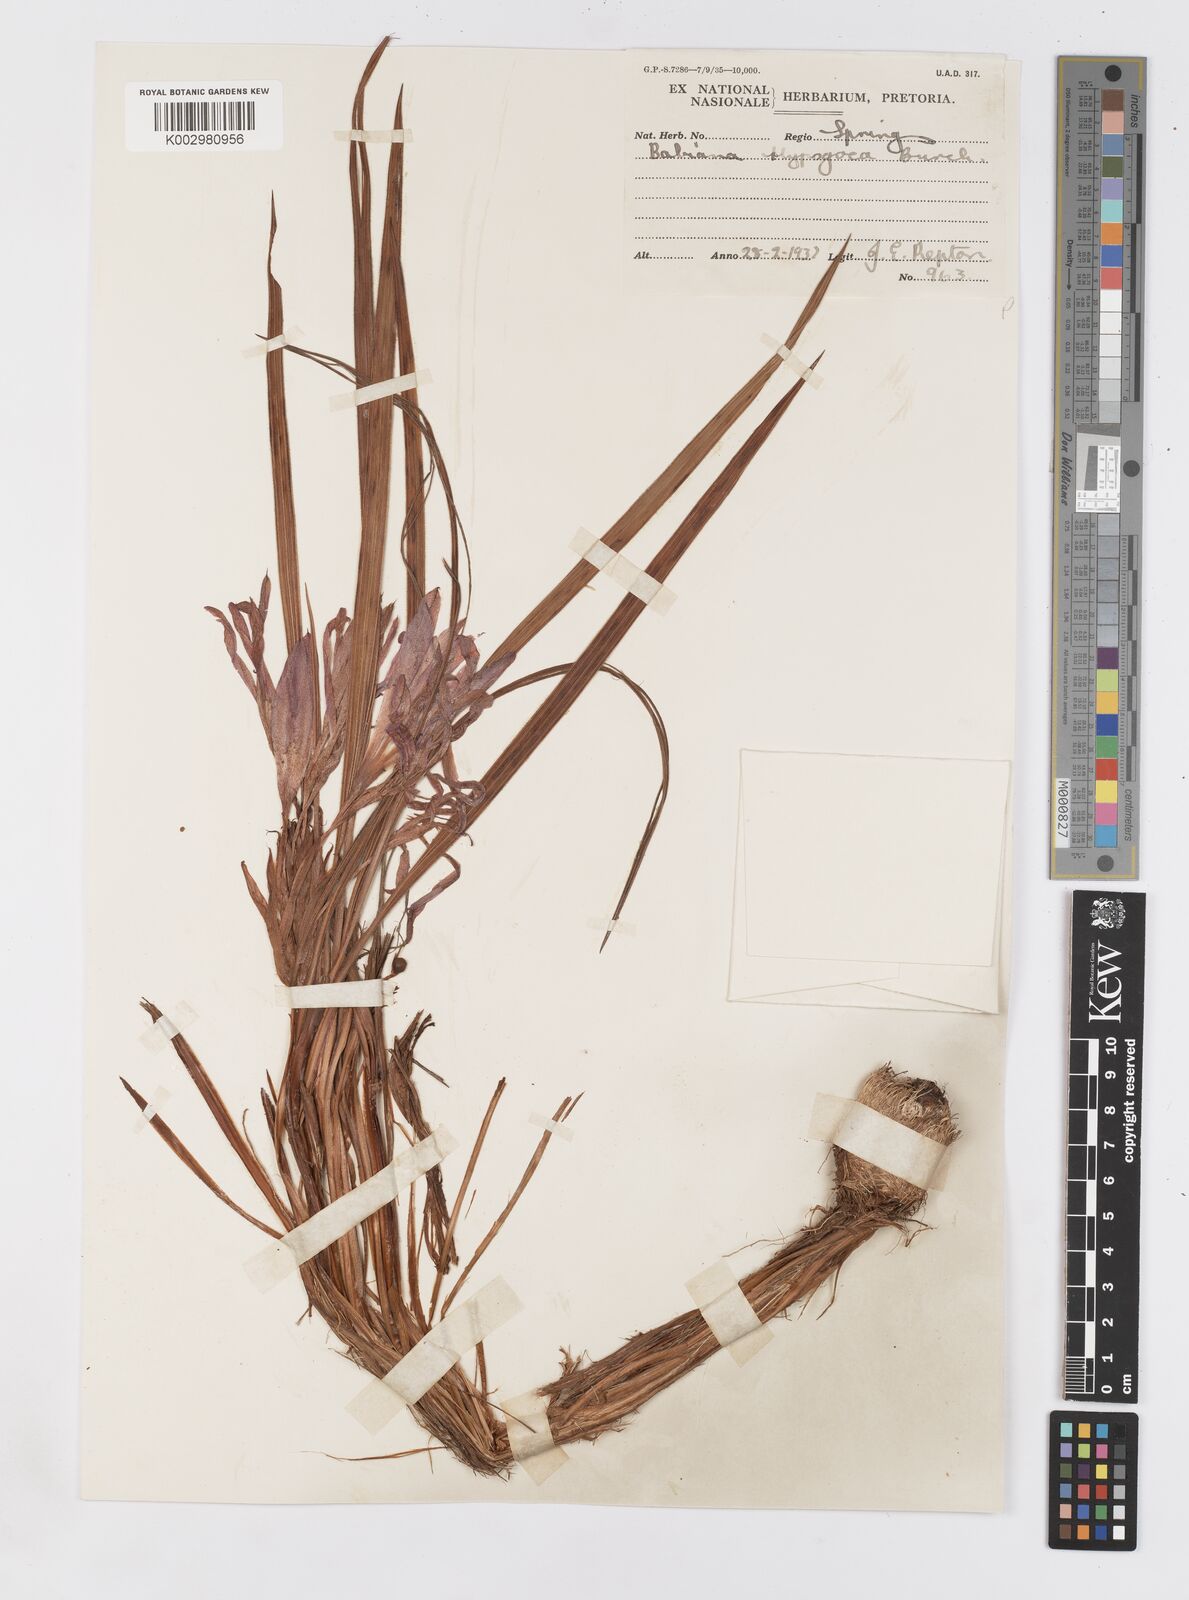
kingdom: Plantae
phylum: Tracheophyta
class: Liliopsida
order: Asparagales
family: Iridaceae
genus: Babiana
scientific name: Babiana bainesii
